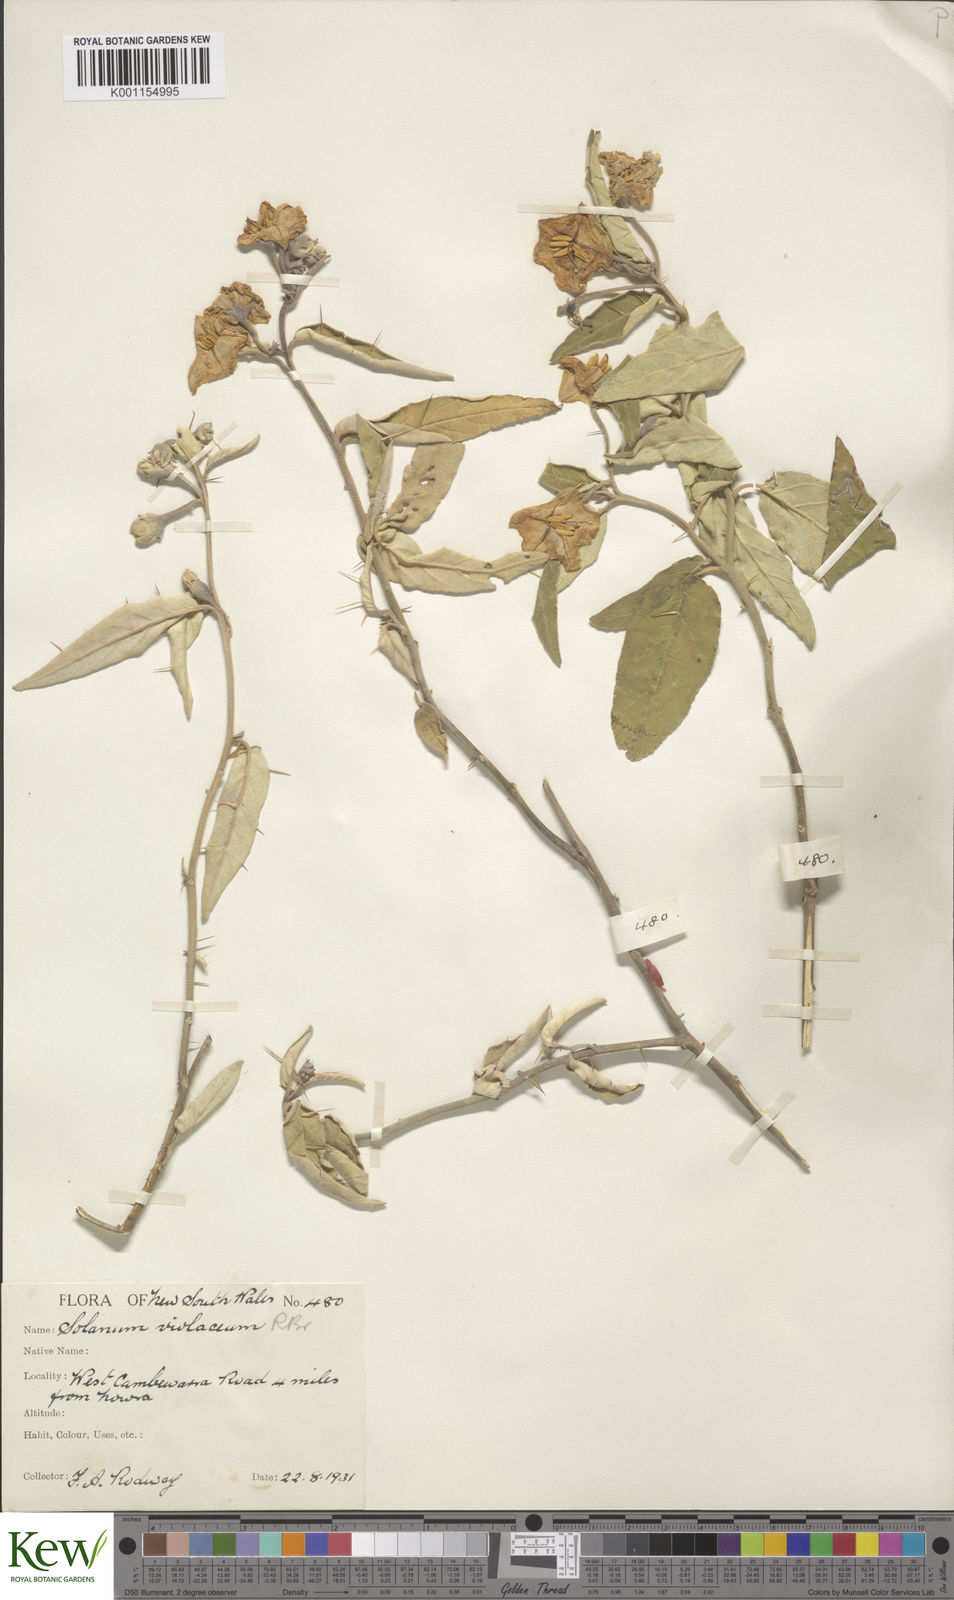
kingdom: Plantae
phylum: Tracheophyta
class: Magnoliopsida
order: Solanales
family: Solanaceae
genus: Solanum
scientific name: Solanum brownii
